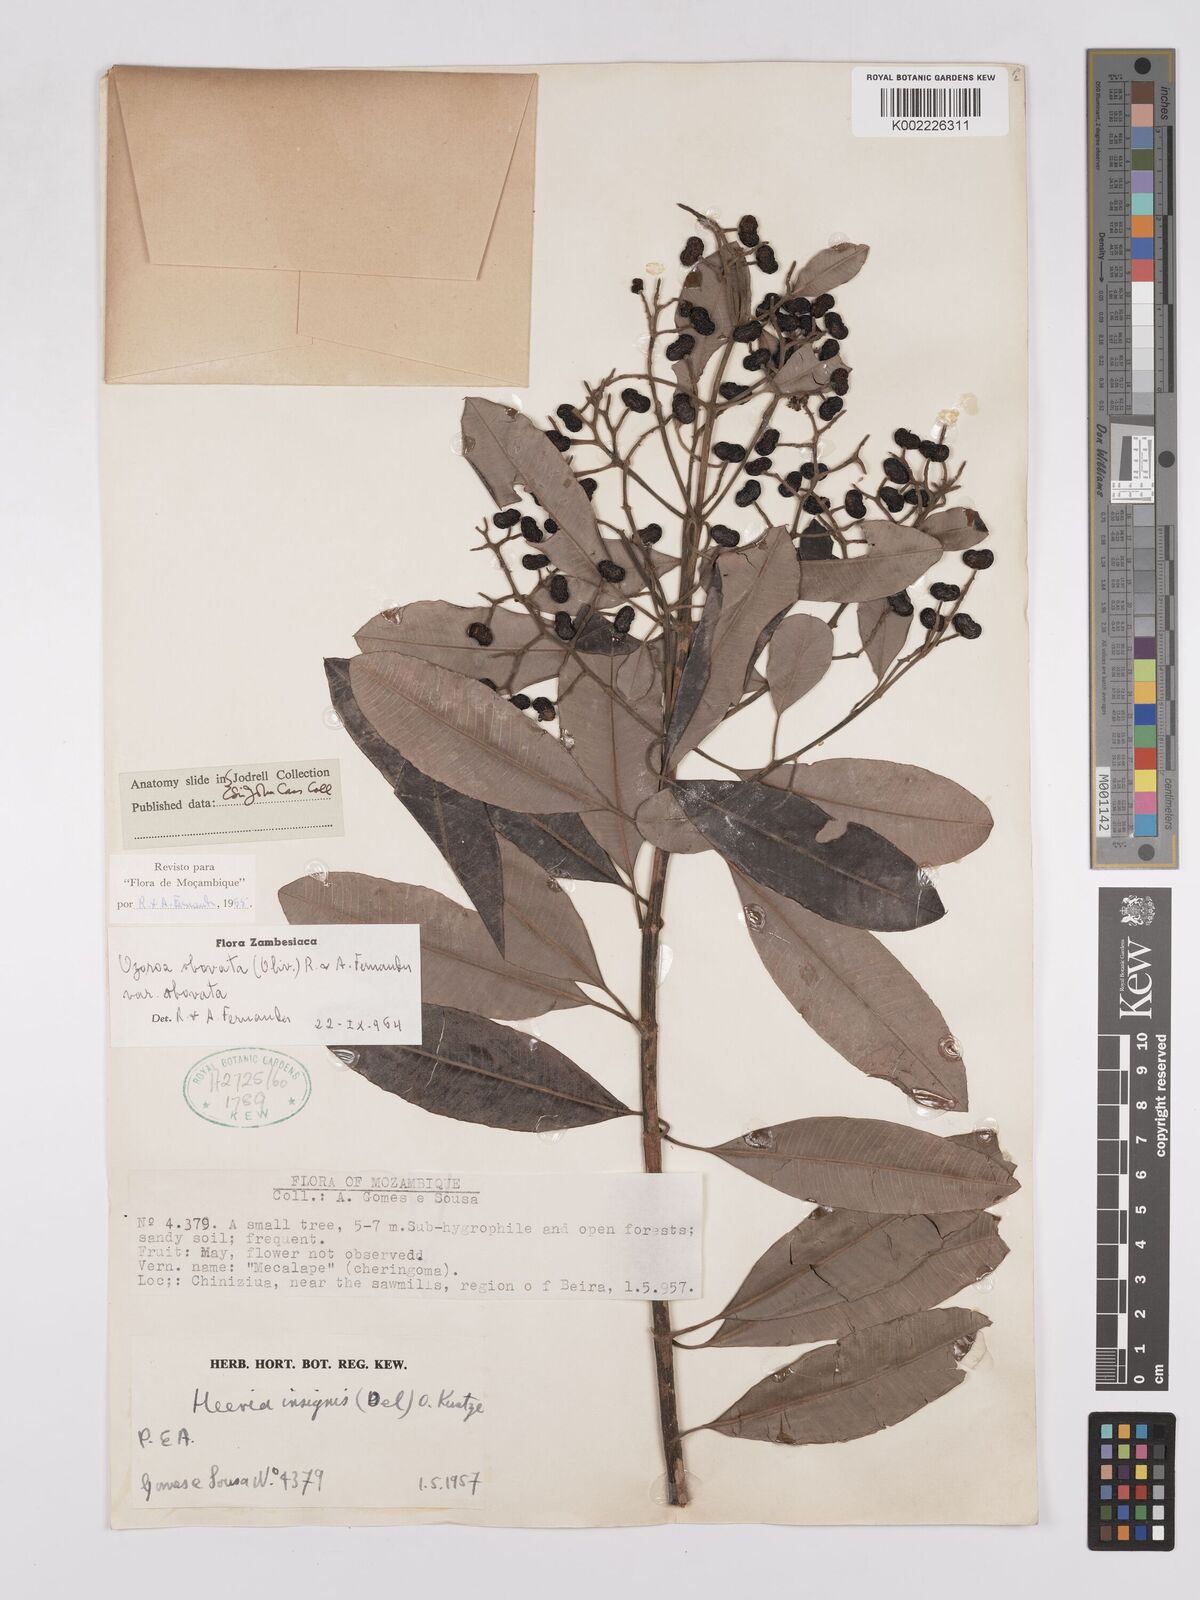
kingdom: Plantae
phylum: Tracheophyta
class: Magnoliopsida
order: Sapindales
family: Anacardiaceae
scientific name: Anacardiaceae
